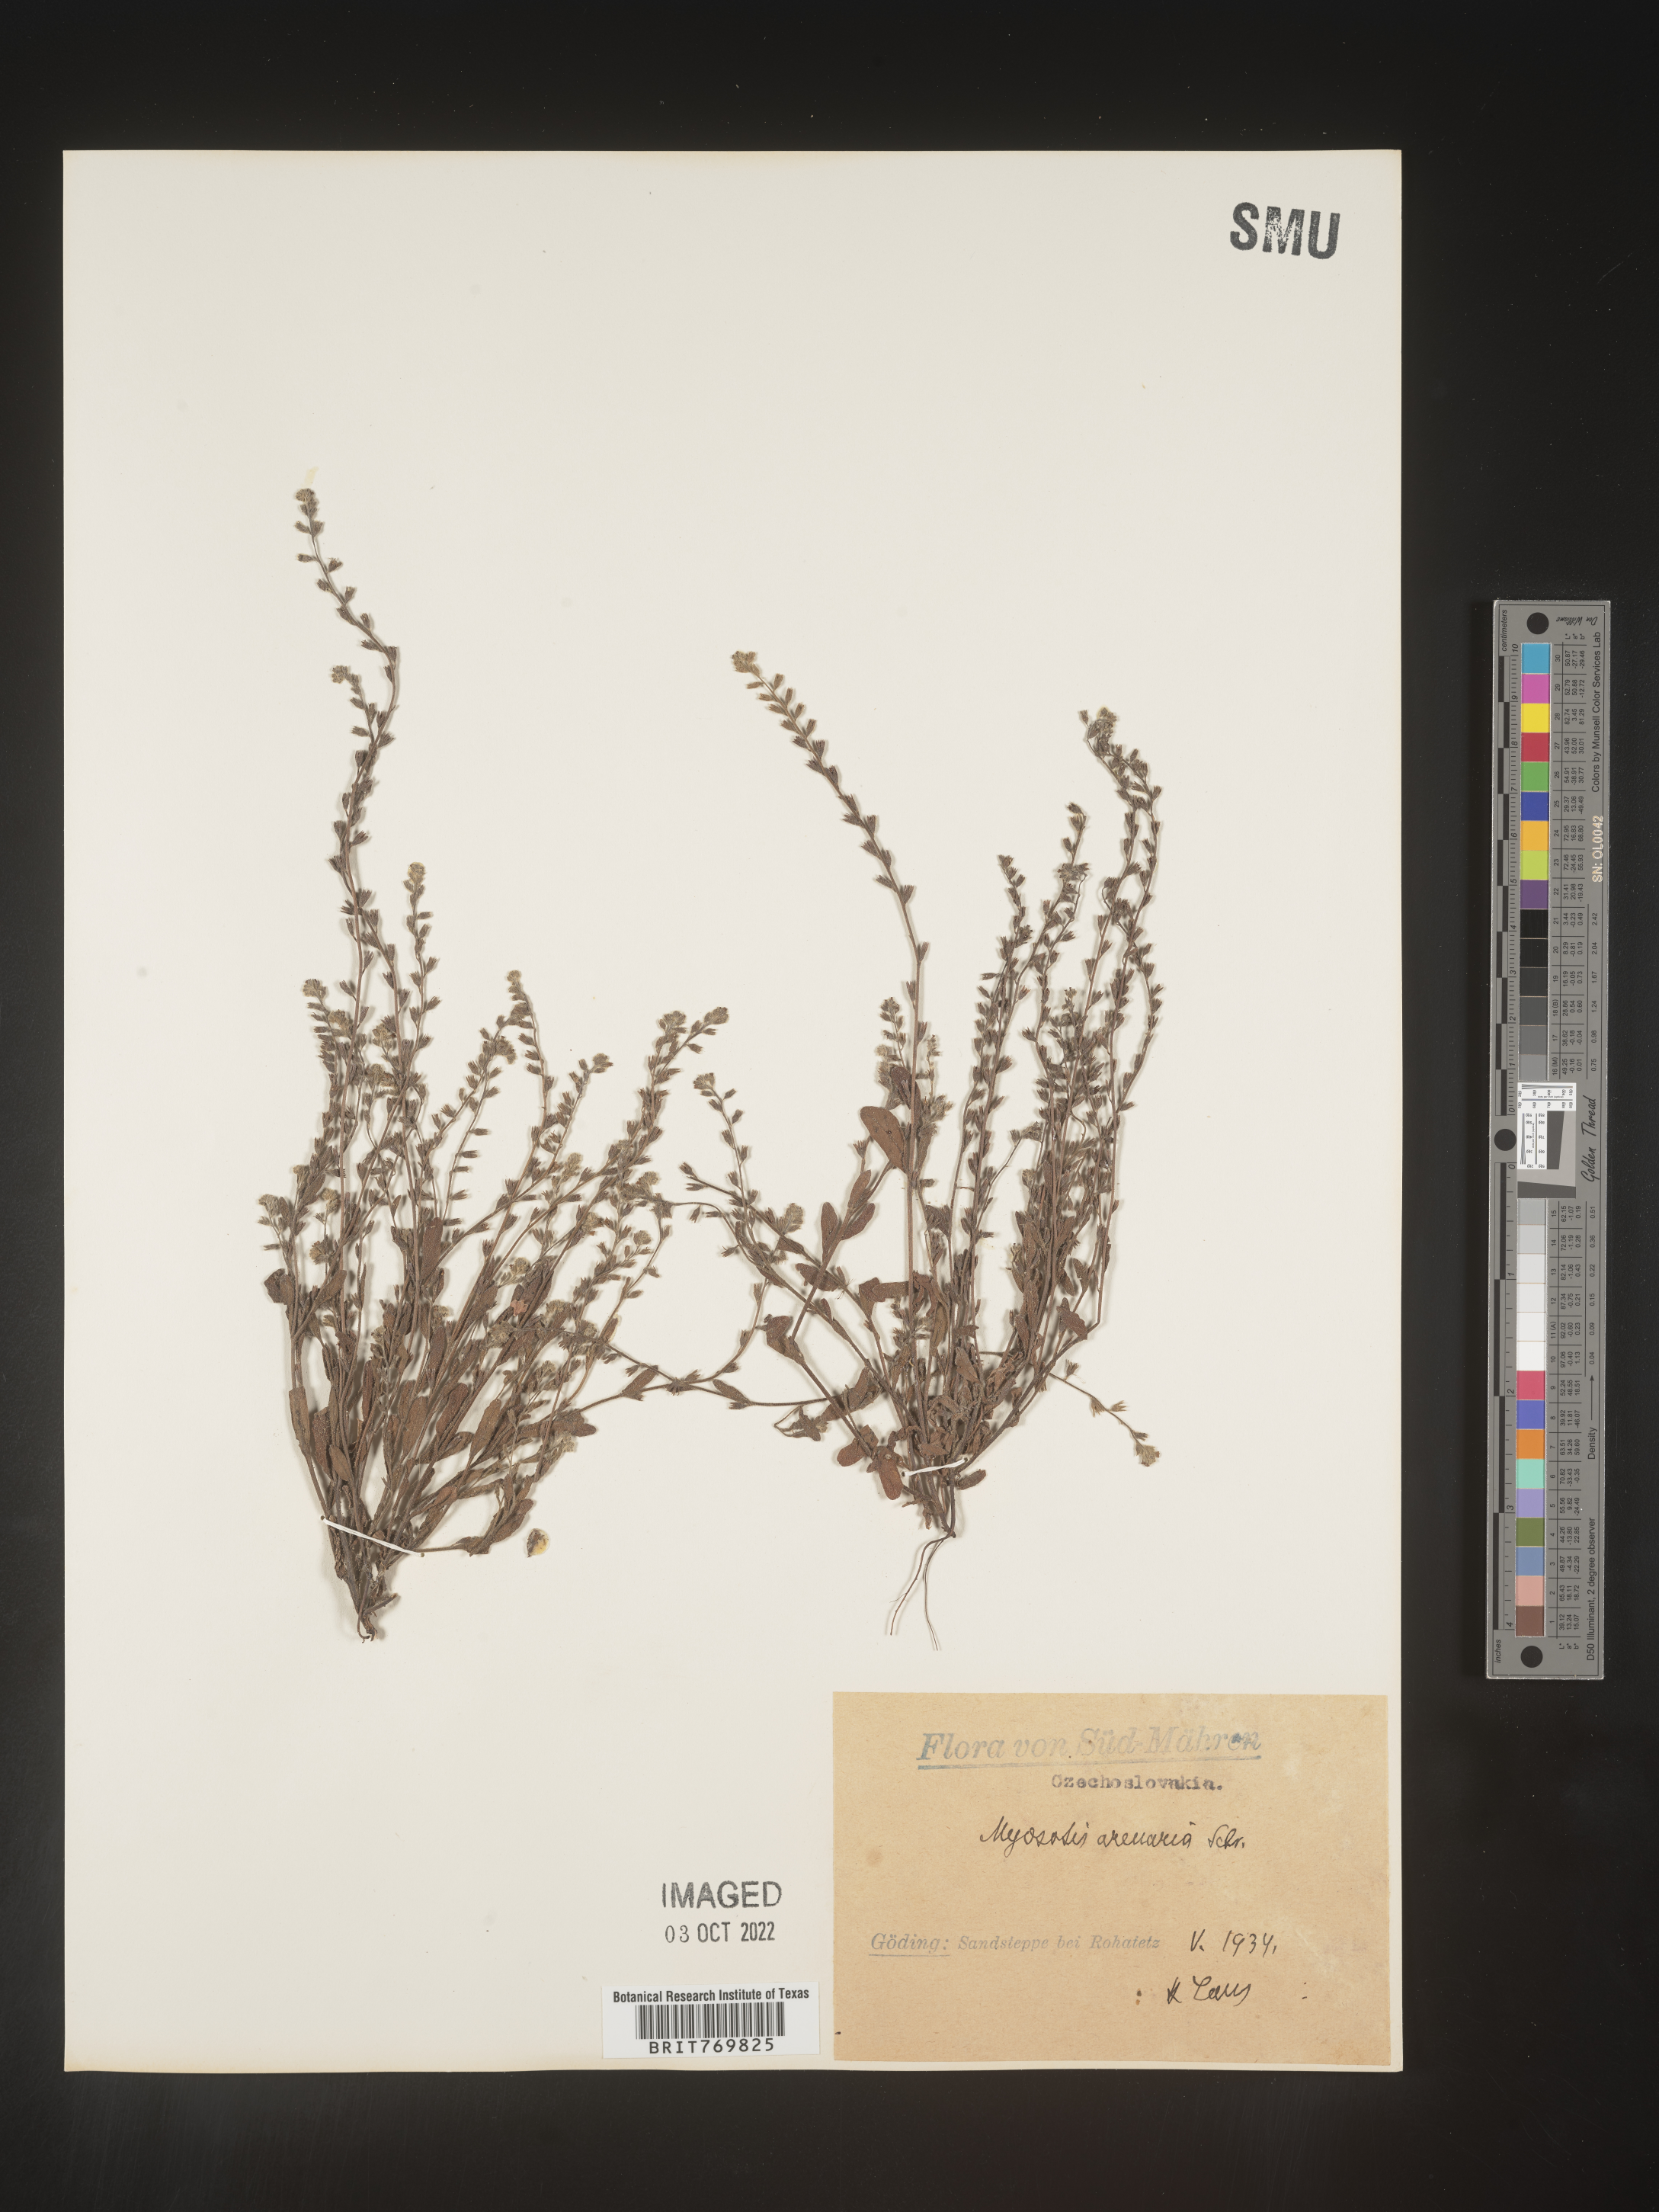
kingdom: Plantae
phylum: Tracheophyta
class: Magnoliopsida
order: Boraginales
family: Boraginaceae
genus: Myosotis
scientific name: Myosotis
